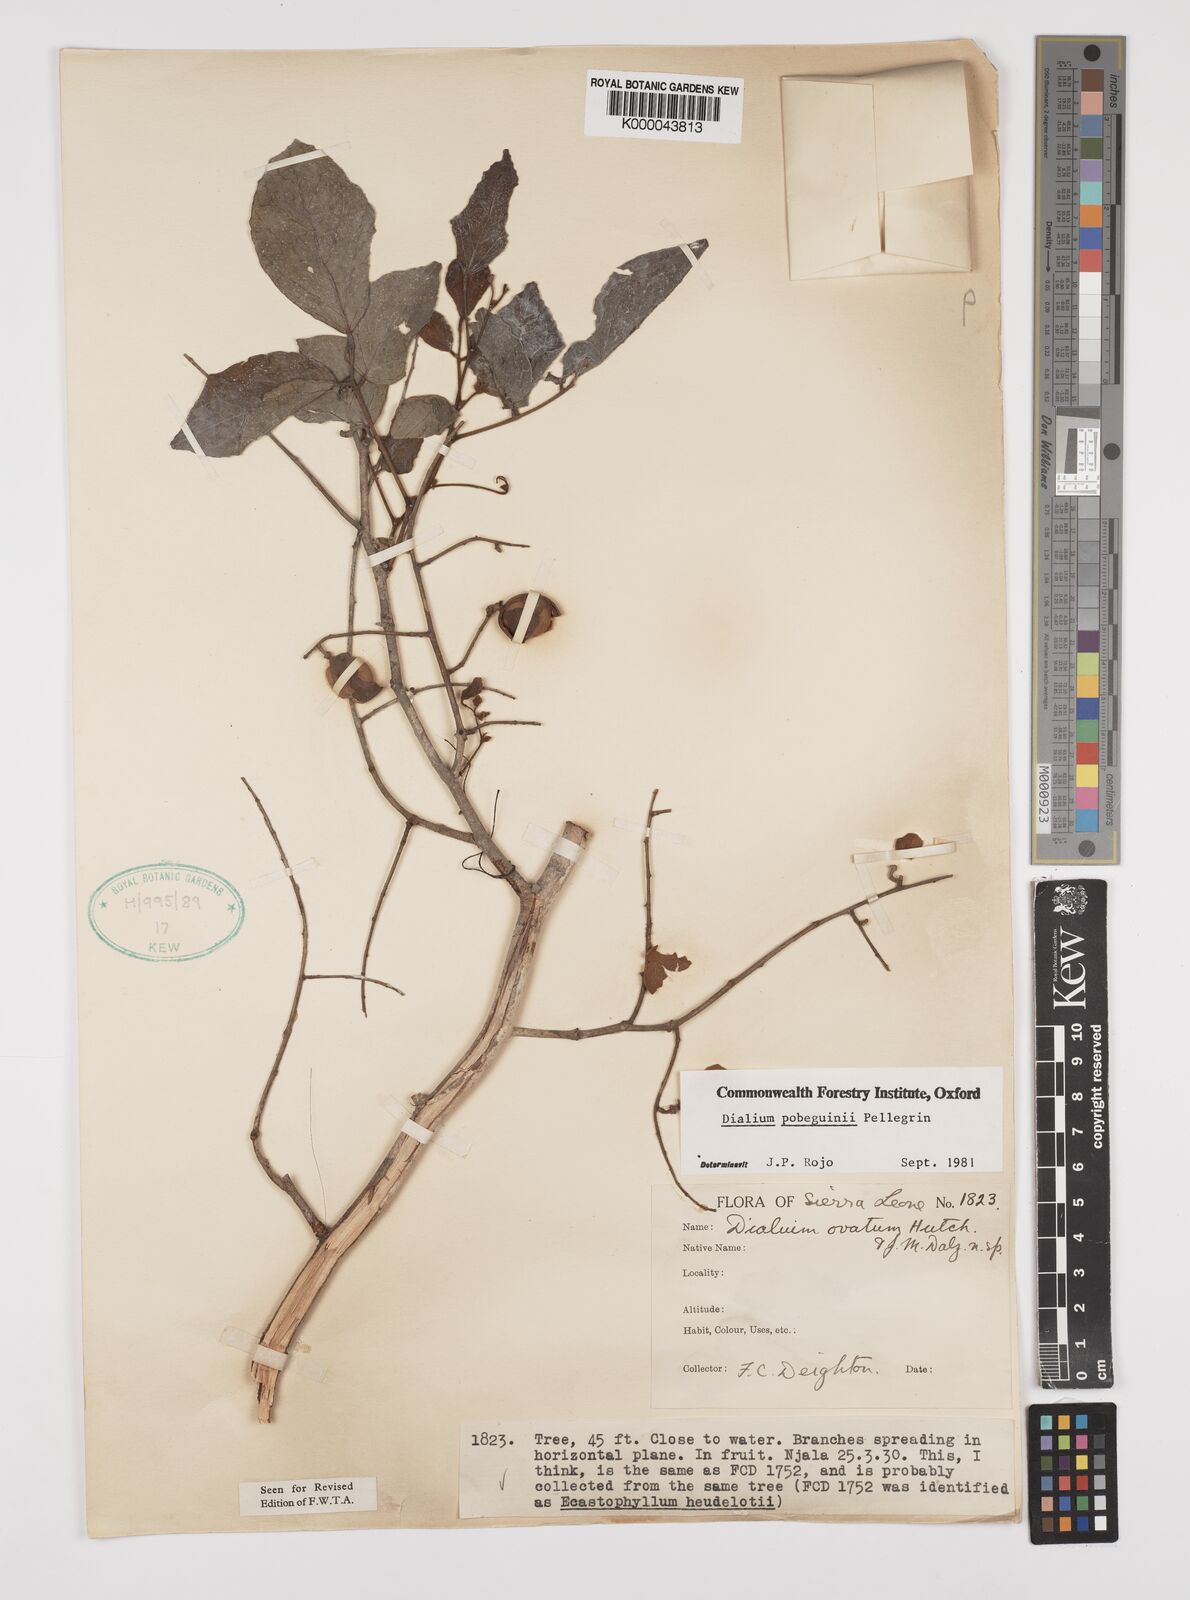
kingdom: Plantae
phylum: Tracheophyta
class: Magnoliopsida
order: Fabales
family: Fabaceae
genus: Dialium
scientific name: Dialium
